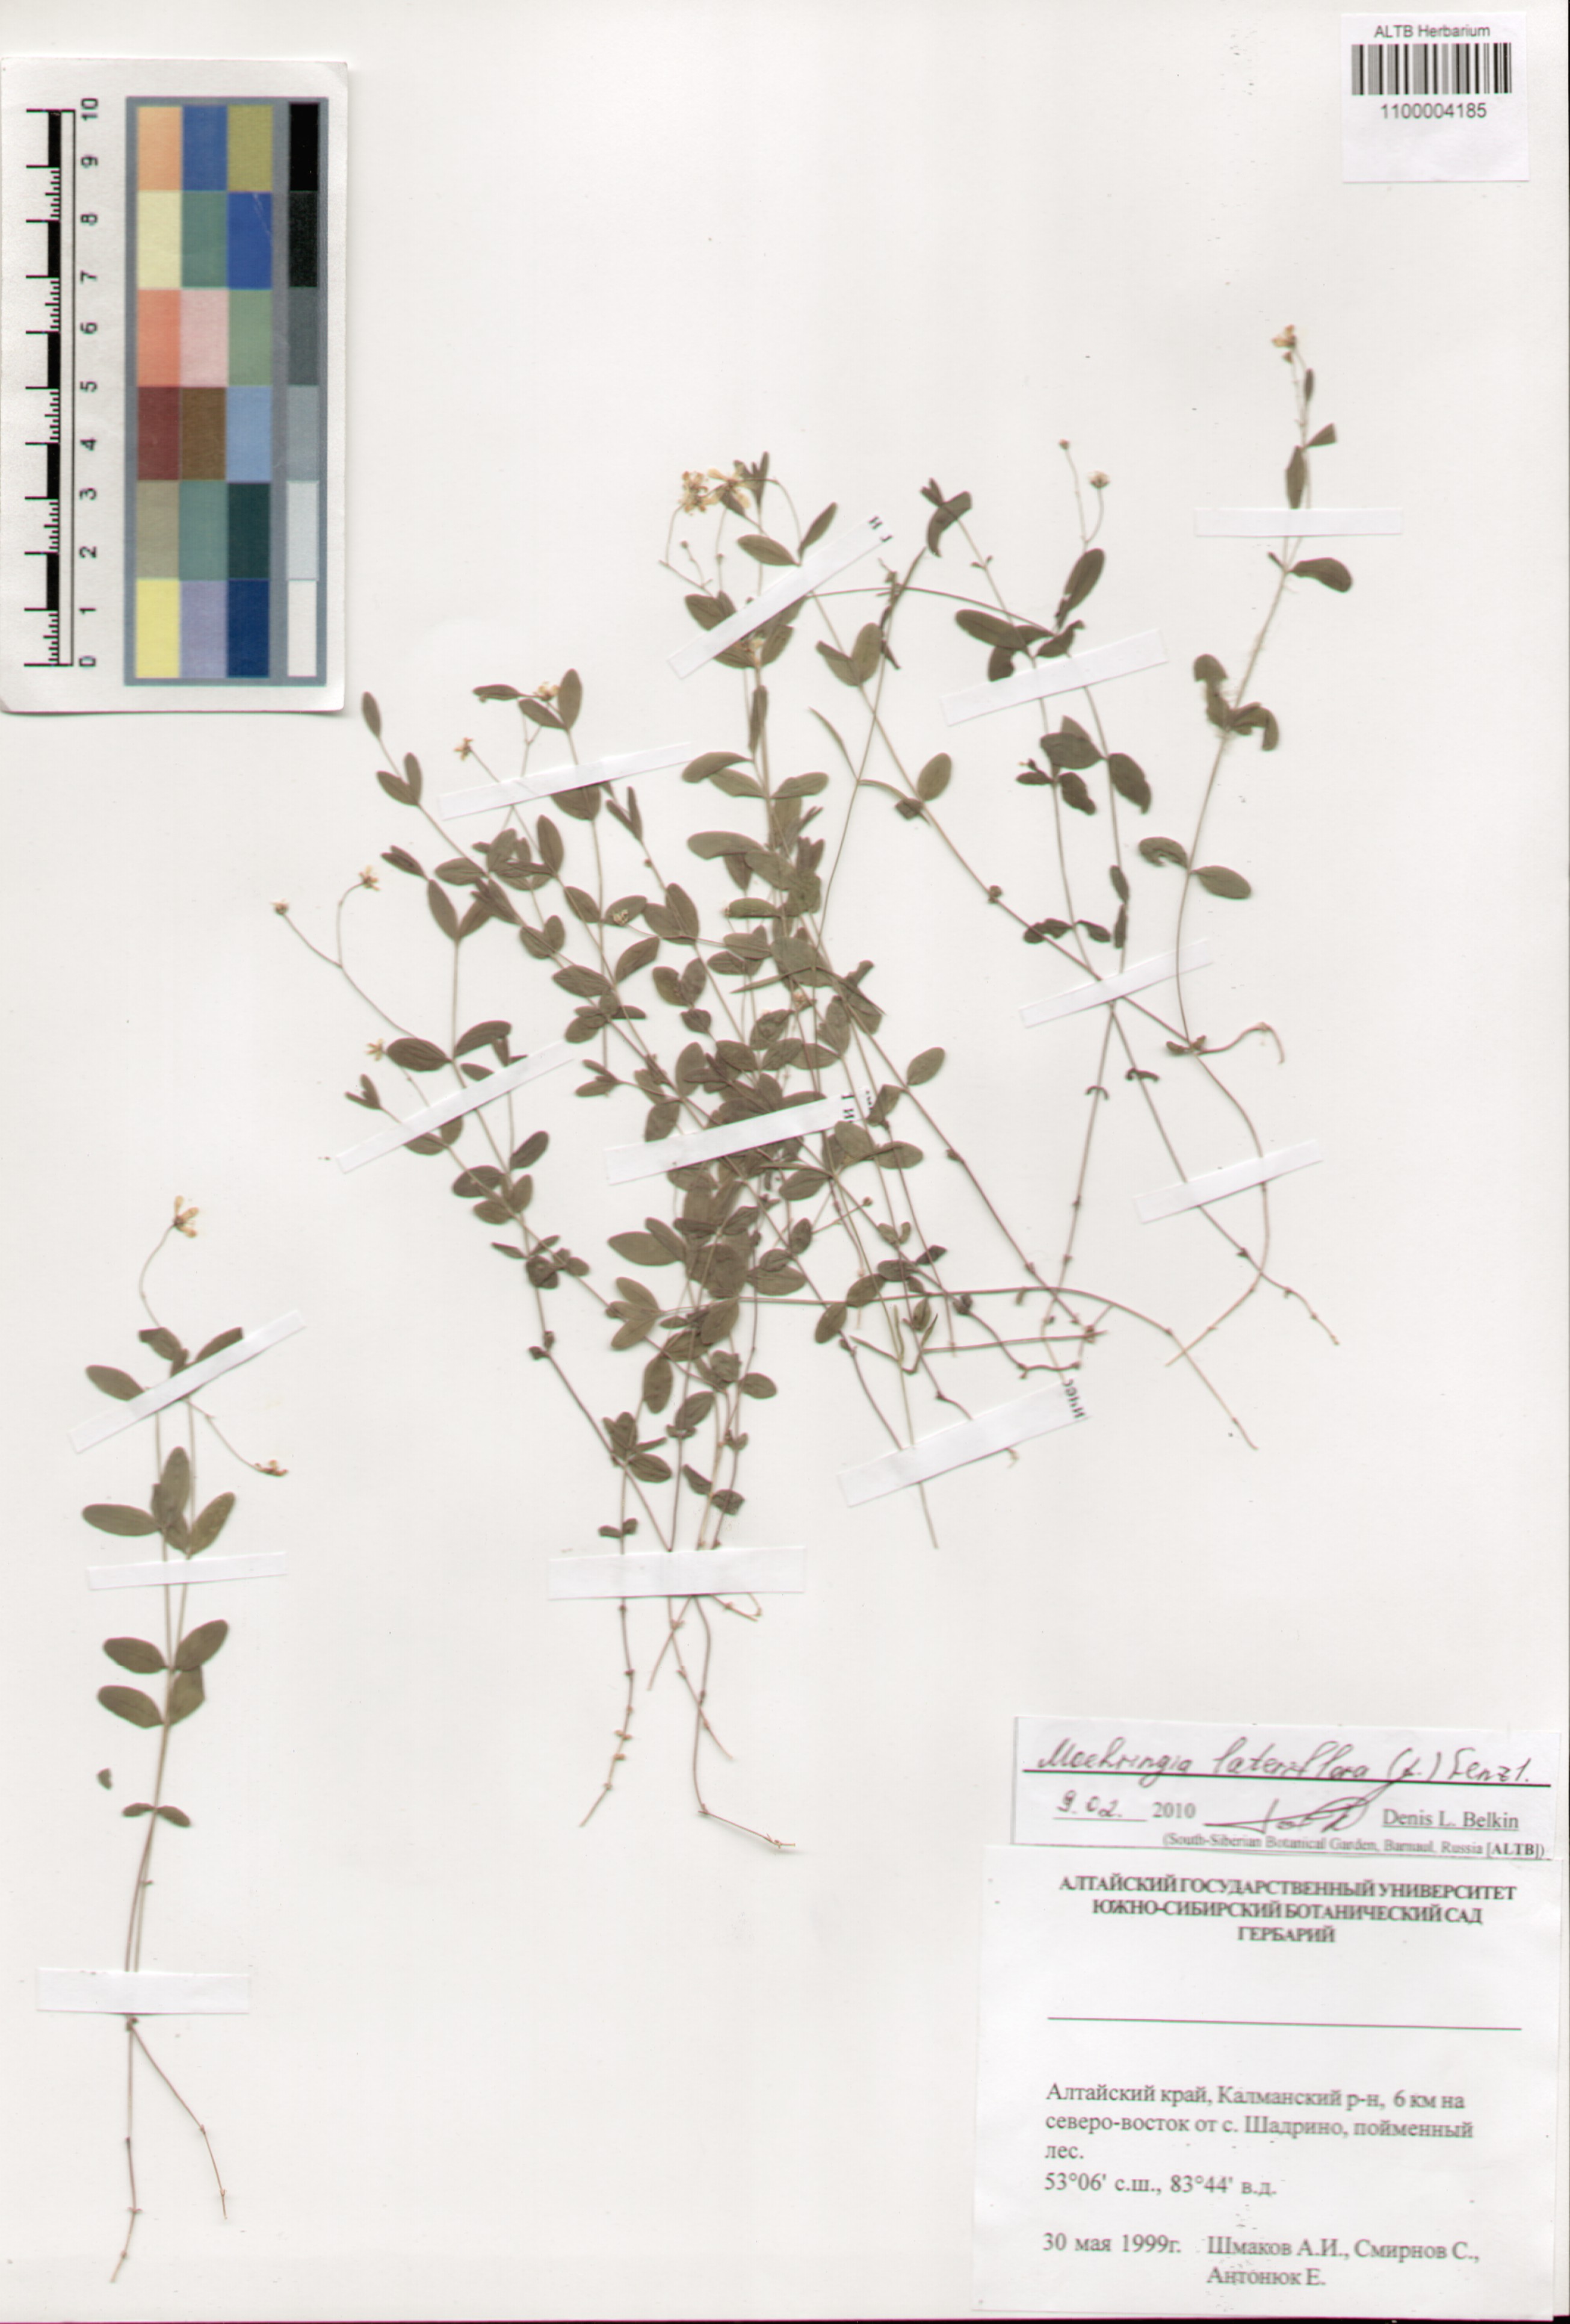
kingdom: Plantae
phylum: Tracheophyta
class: Magnoliopsida
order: Caryophyllales
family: Caryophyllaceae
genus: Moehringia
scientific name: Moehringia lateriflora
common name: Blunt-leaved sandwort
